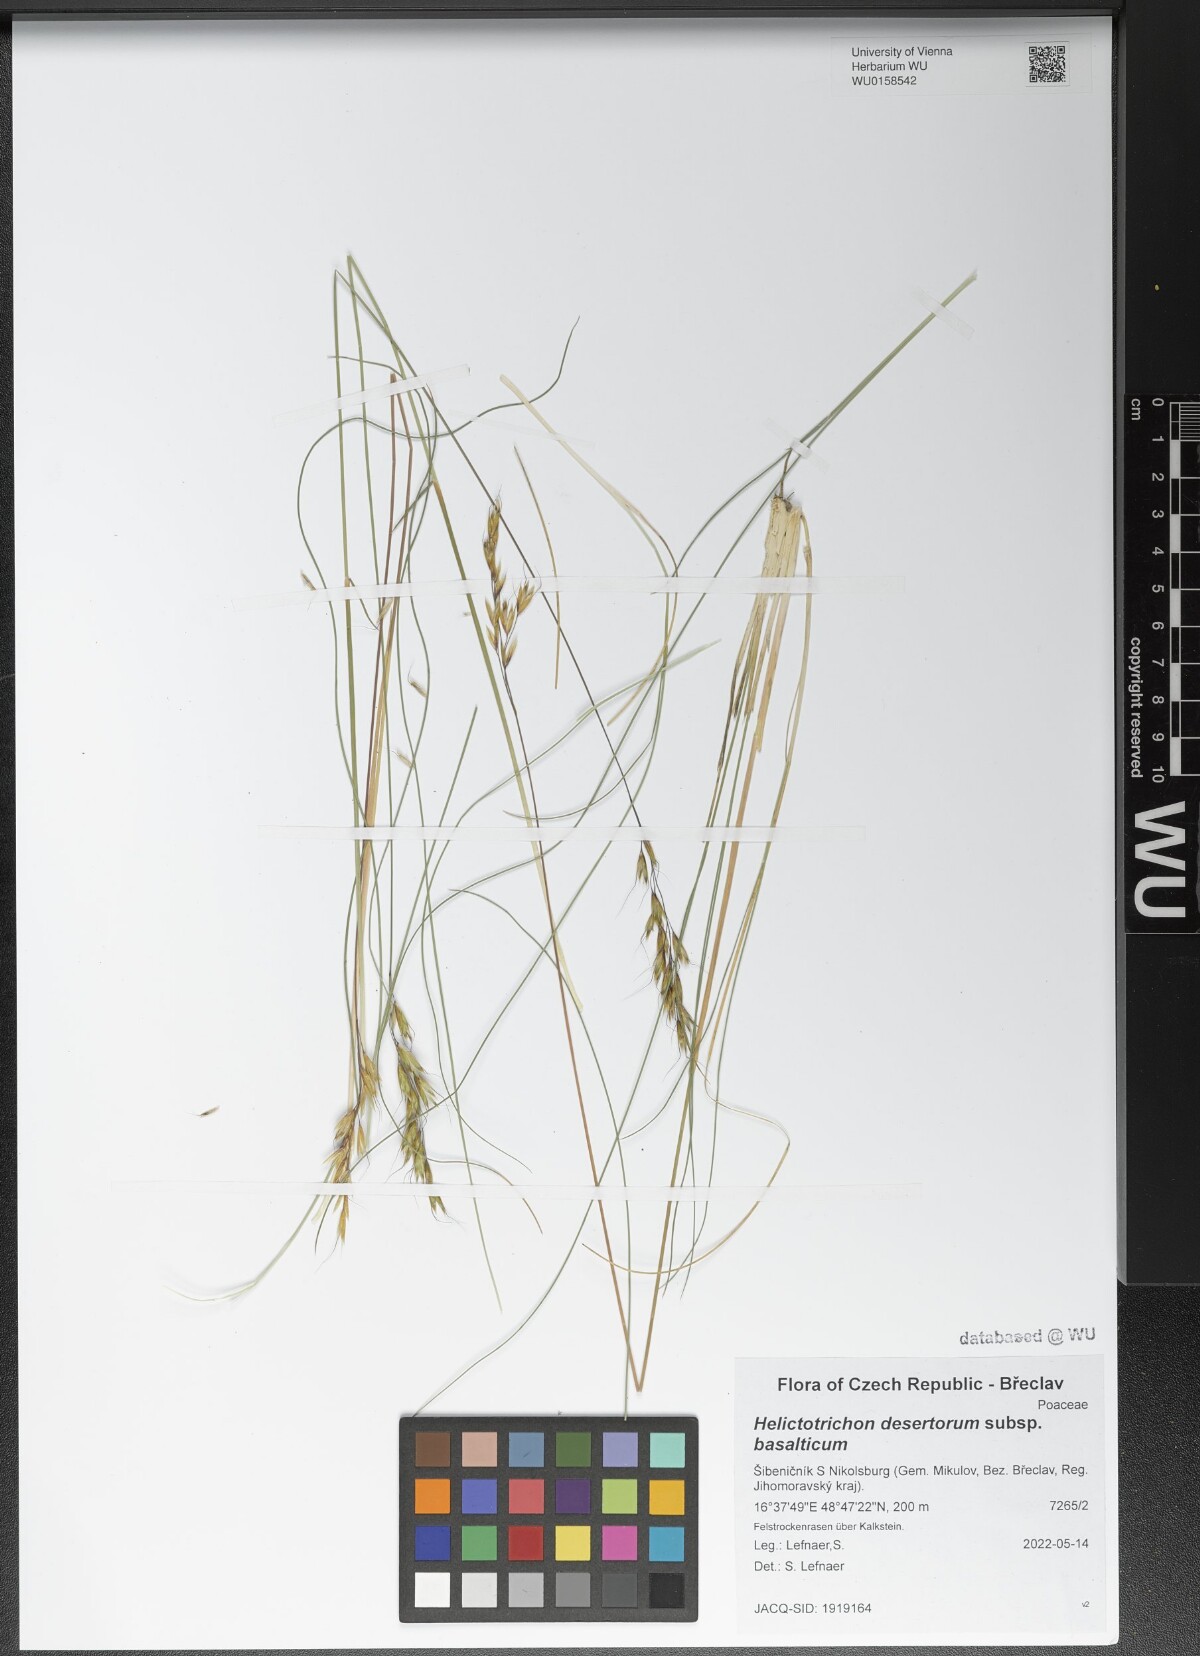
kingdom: Plantae
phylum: Tracheophyta
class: Liliopsida
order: Poales
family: Poaceae
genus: Helictotrichon
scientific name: Helictotrichon desertorum
